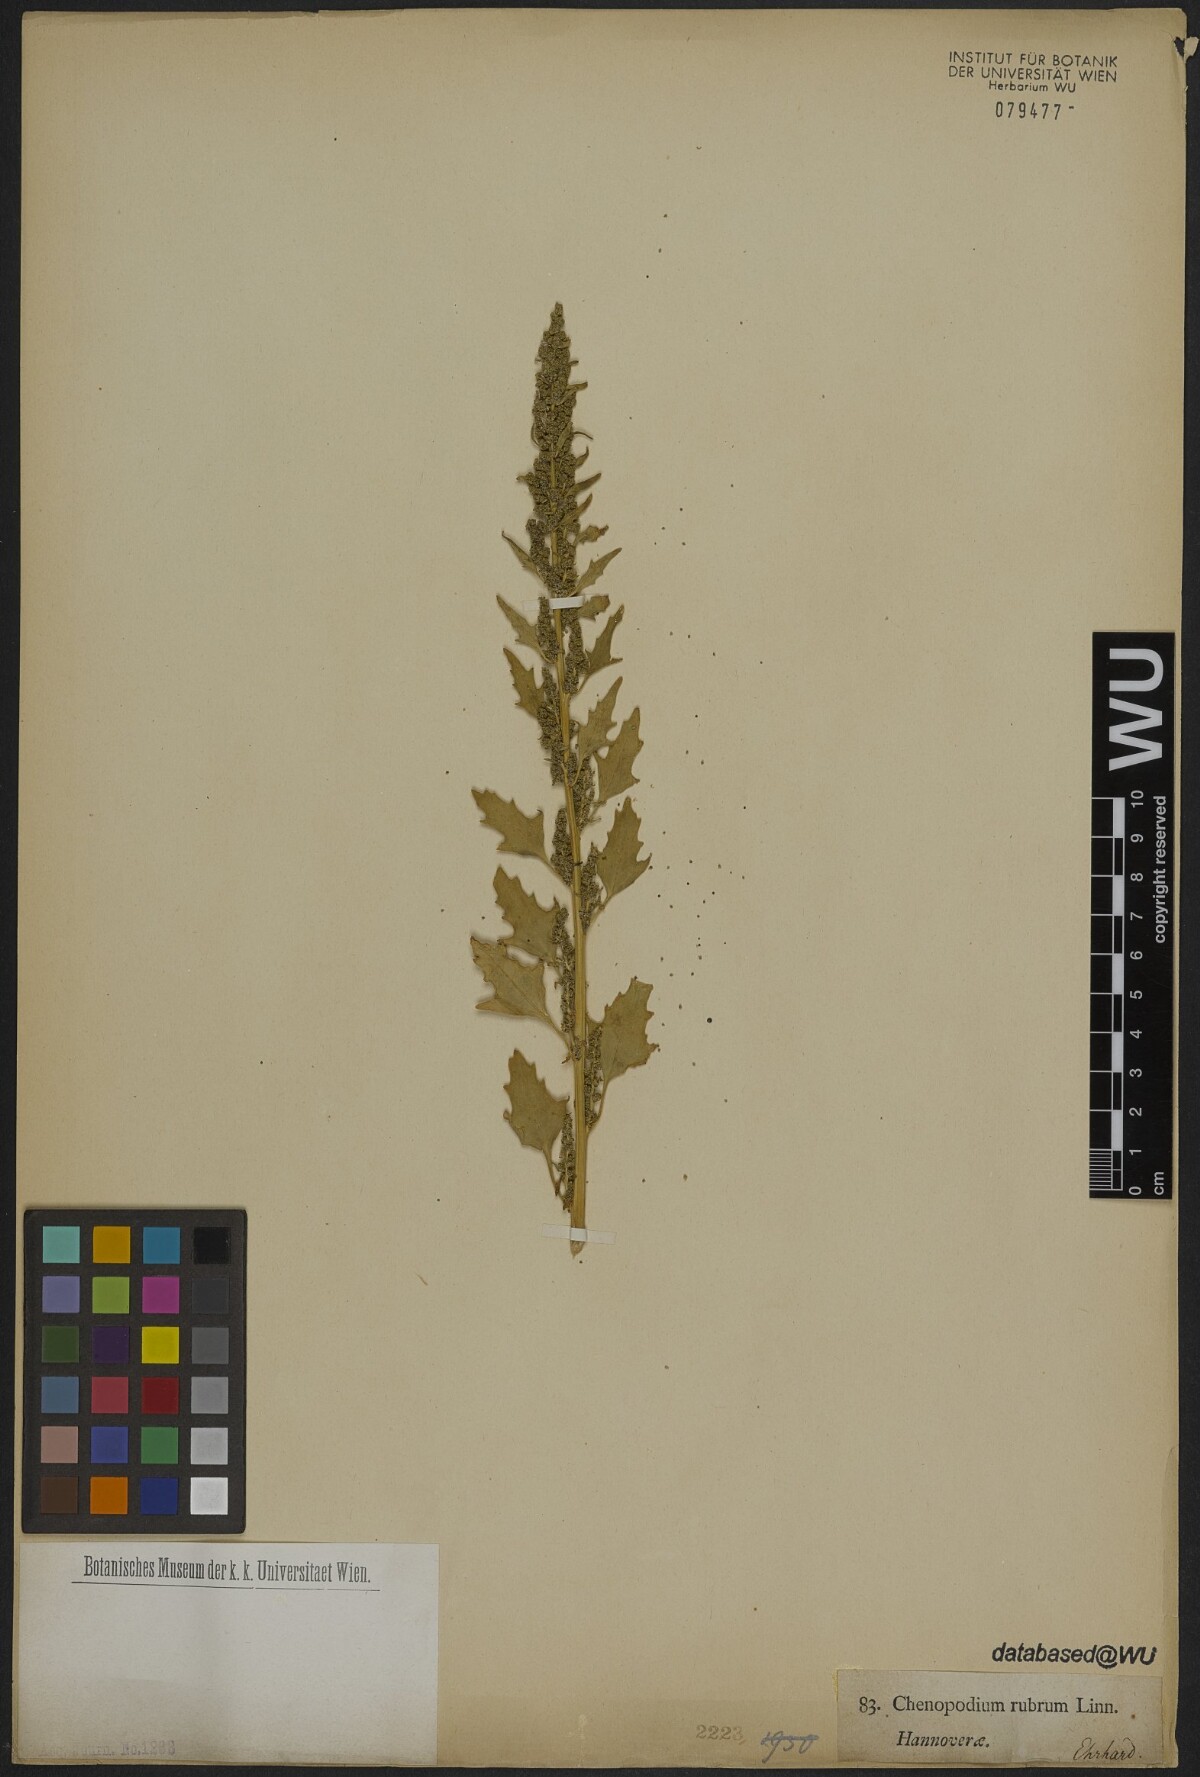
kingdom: Plantae
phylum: Tracheophyta
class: Magnoliopsida
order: Caryophyllales
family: Amaranthaceae
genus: Oxybasis
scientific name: Oxybasis rubra
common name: Red goosefoot
